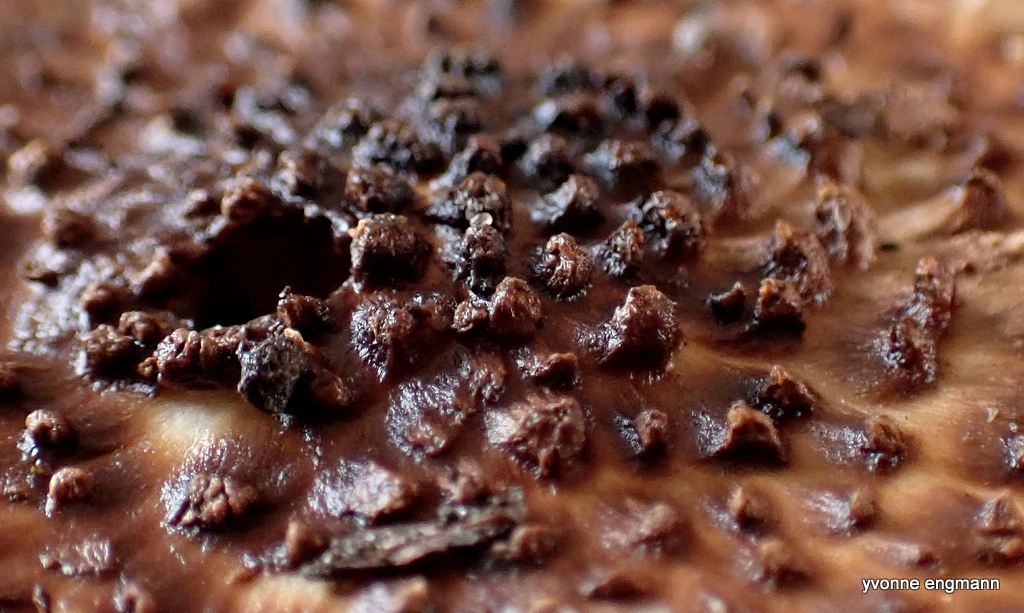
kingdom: Fungi
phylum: Basidiomycota
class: Agaricomycetes
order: Agaricales
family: Agaricaceae
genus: Echinoderma
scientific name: Echinoderma asperum
